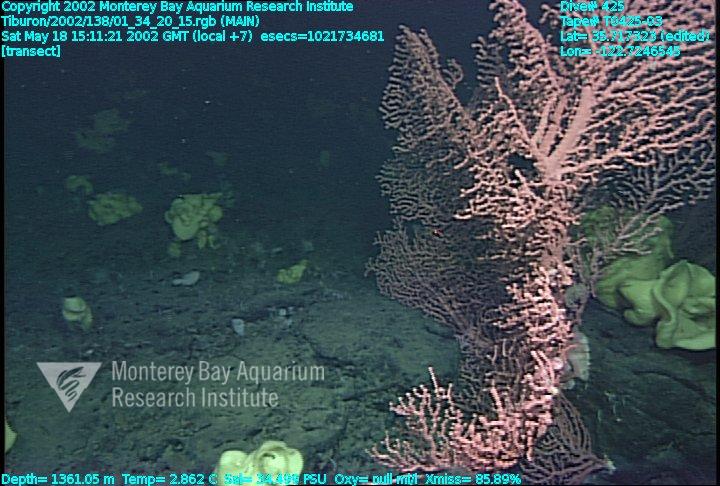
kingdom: Animalia
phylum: Porifera
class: Hexactinellida
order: Lyssacinosida
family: Rossellidae
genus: Staurocalyptus
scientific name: Staurocalyptus
